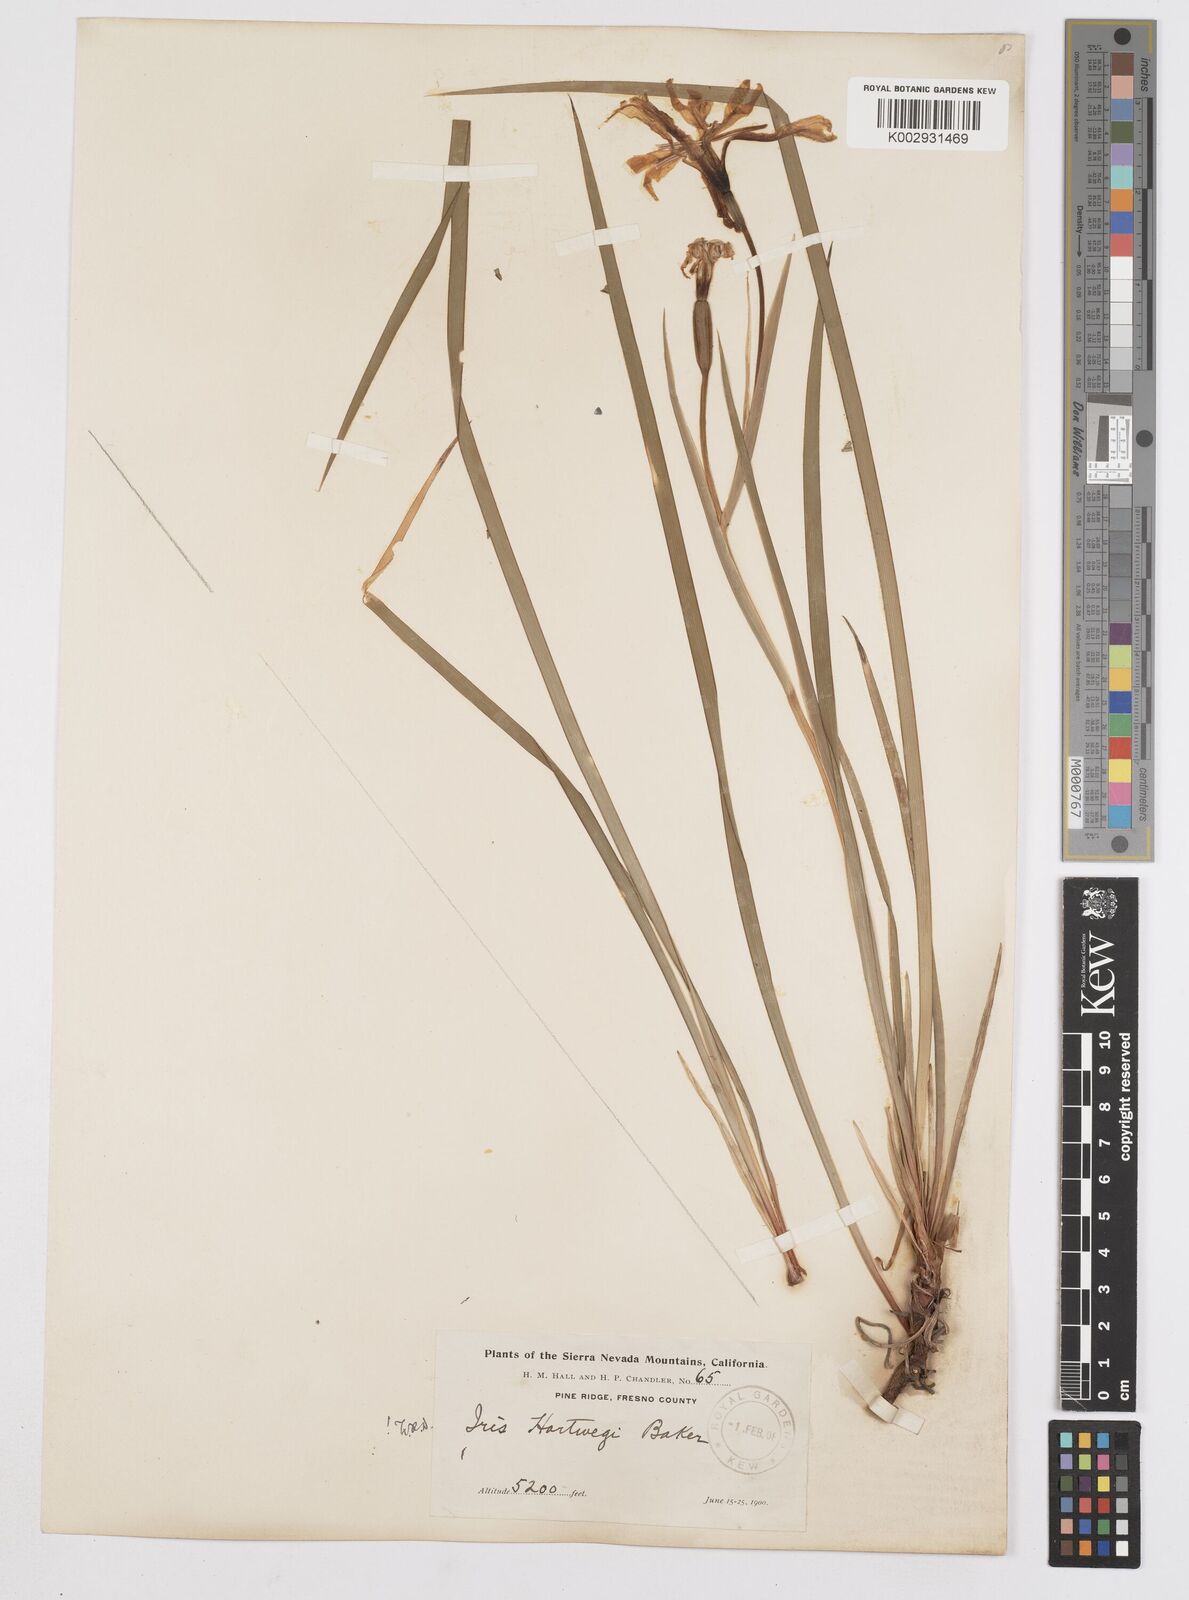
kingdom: Plantae
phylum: Tracheophyta
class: Liliopsida
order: Asparagales
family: Iridaceae
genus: Iris
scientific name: Iris hartwegii
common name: Sierra iris
